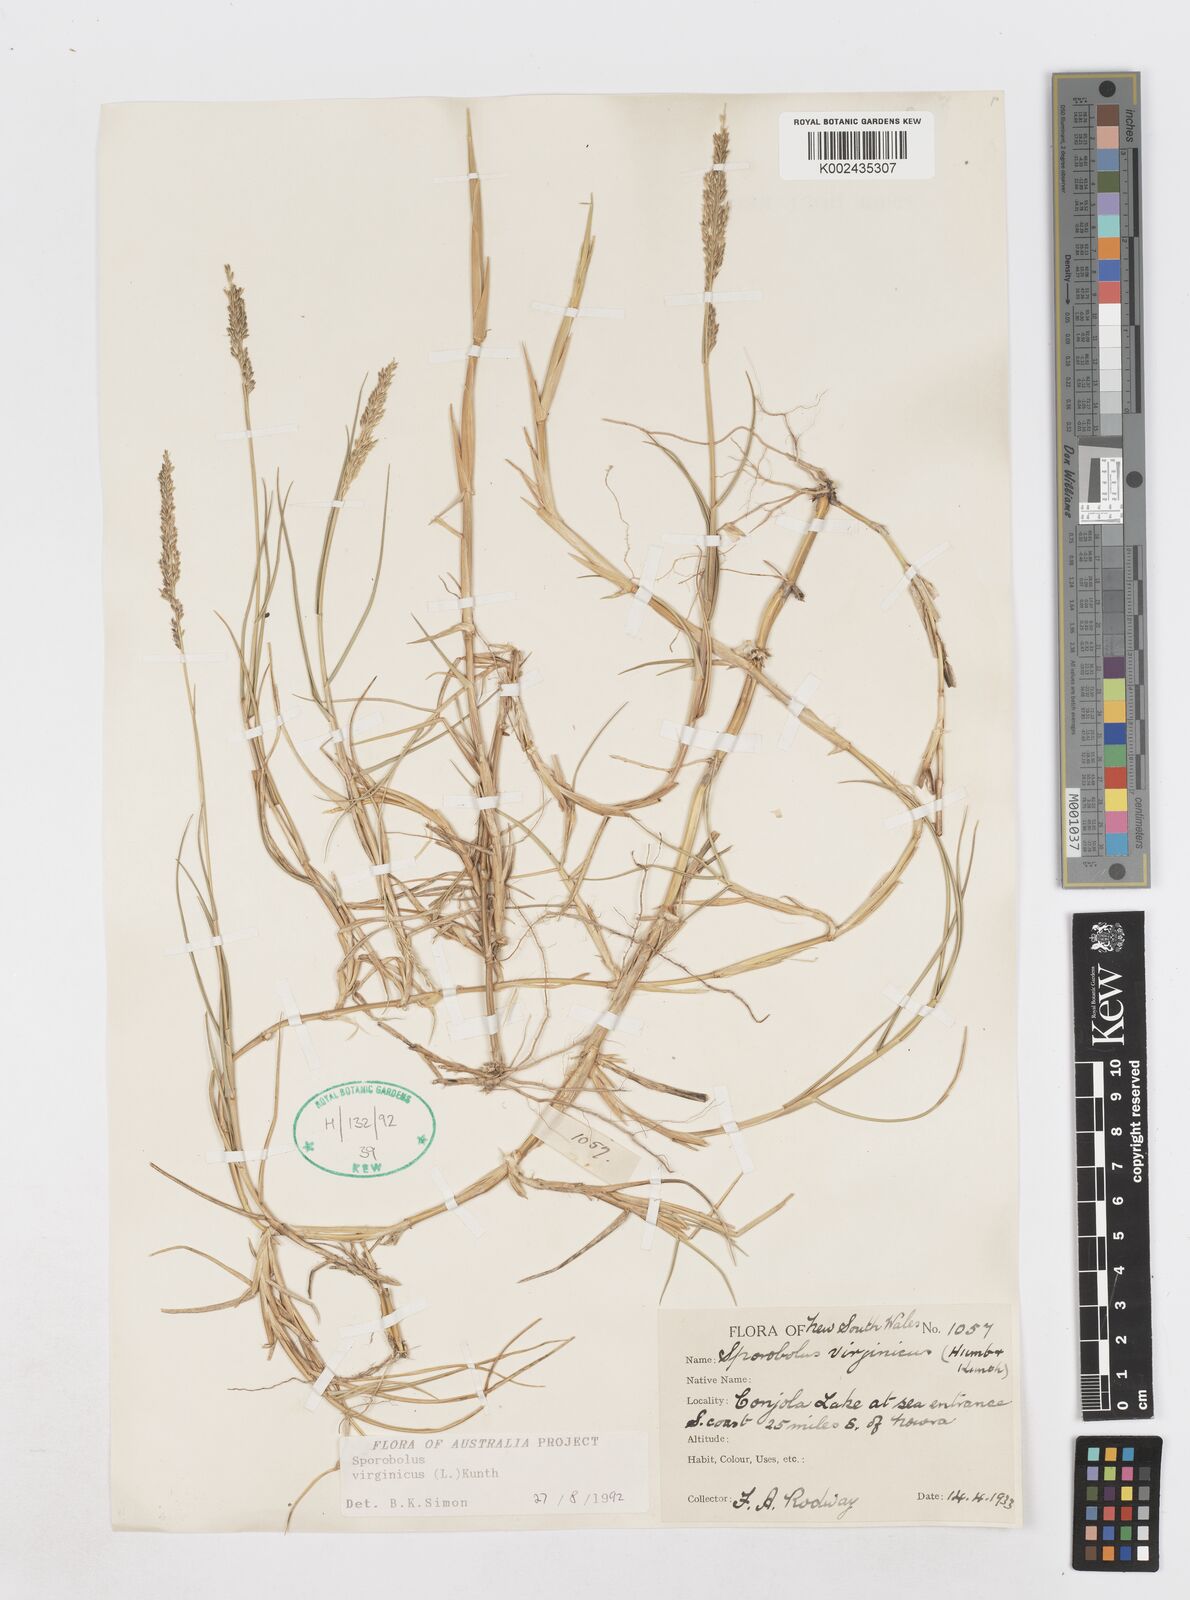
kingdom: Plantae
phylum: Tracheophyta
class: Liliopsida
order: Poales
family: Poaceae
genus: Sporobolus
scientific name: Sporobolus virginicus
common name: Beach dropseed
